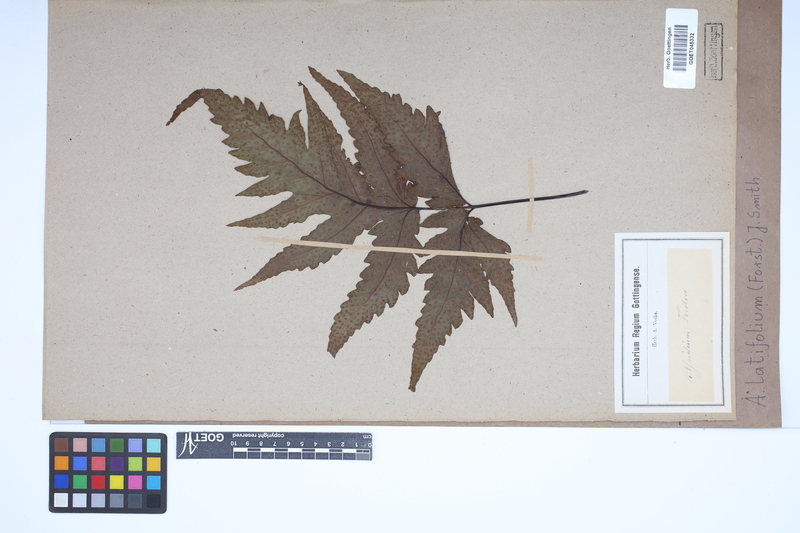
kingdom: Plantae
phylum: Tracheophyta
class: Polypodiopsida
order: Polypodiales
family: Tectariaceae
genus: Tectaria
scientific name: Tectaria latifolia
